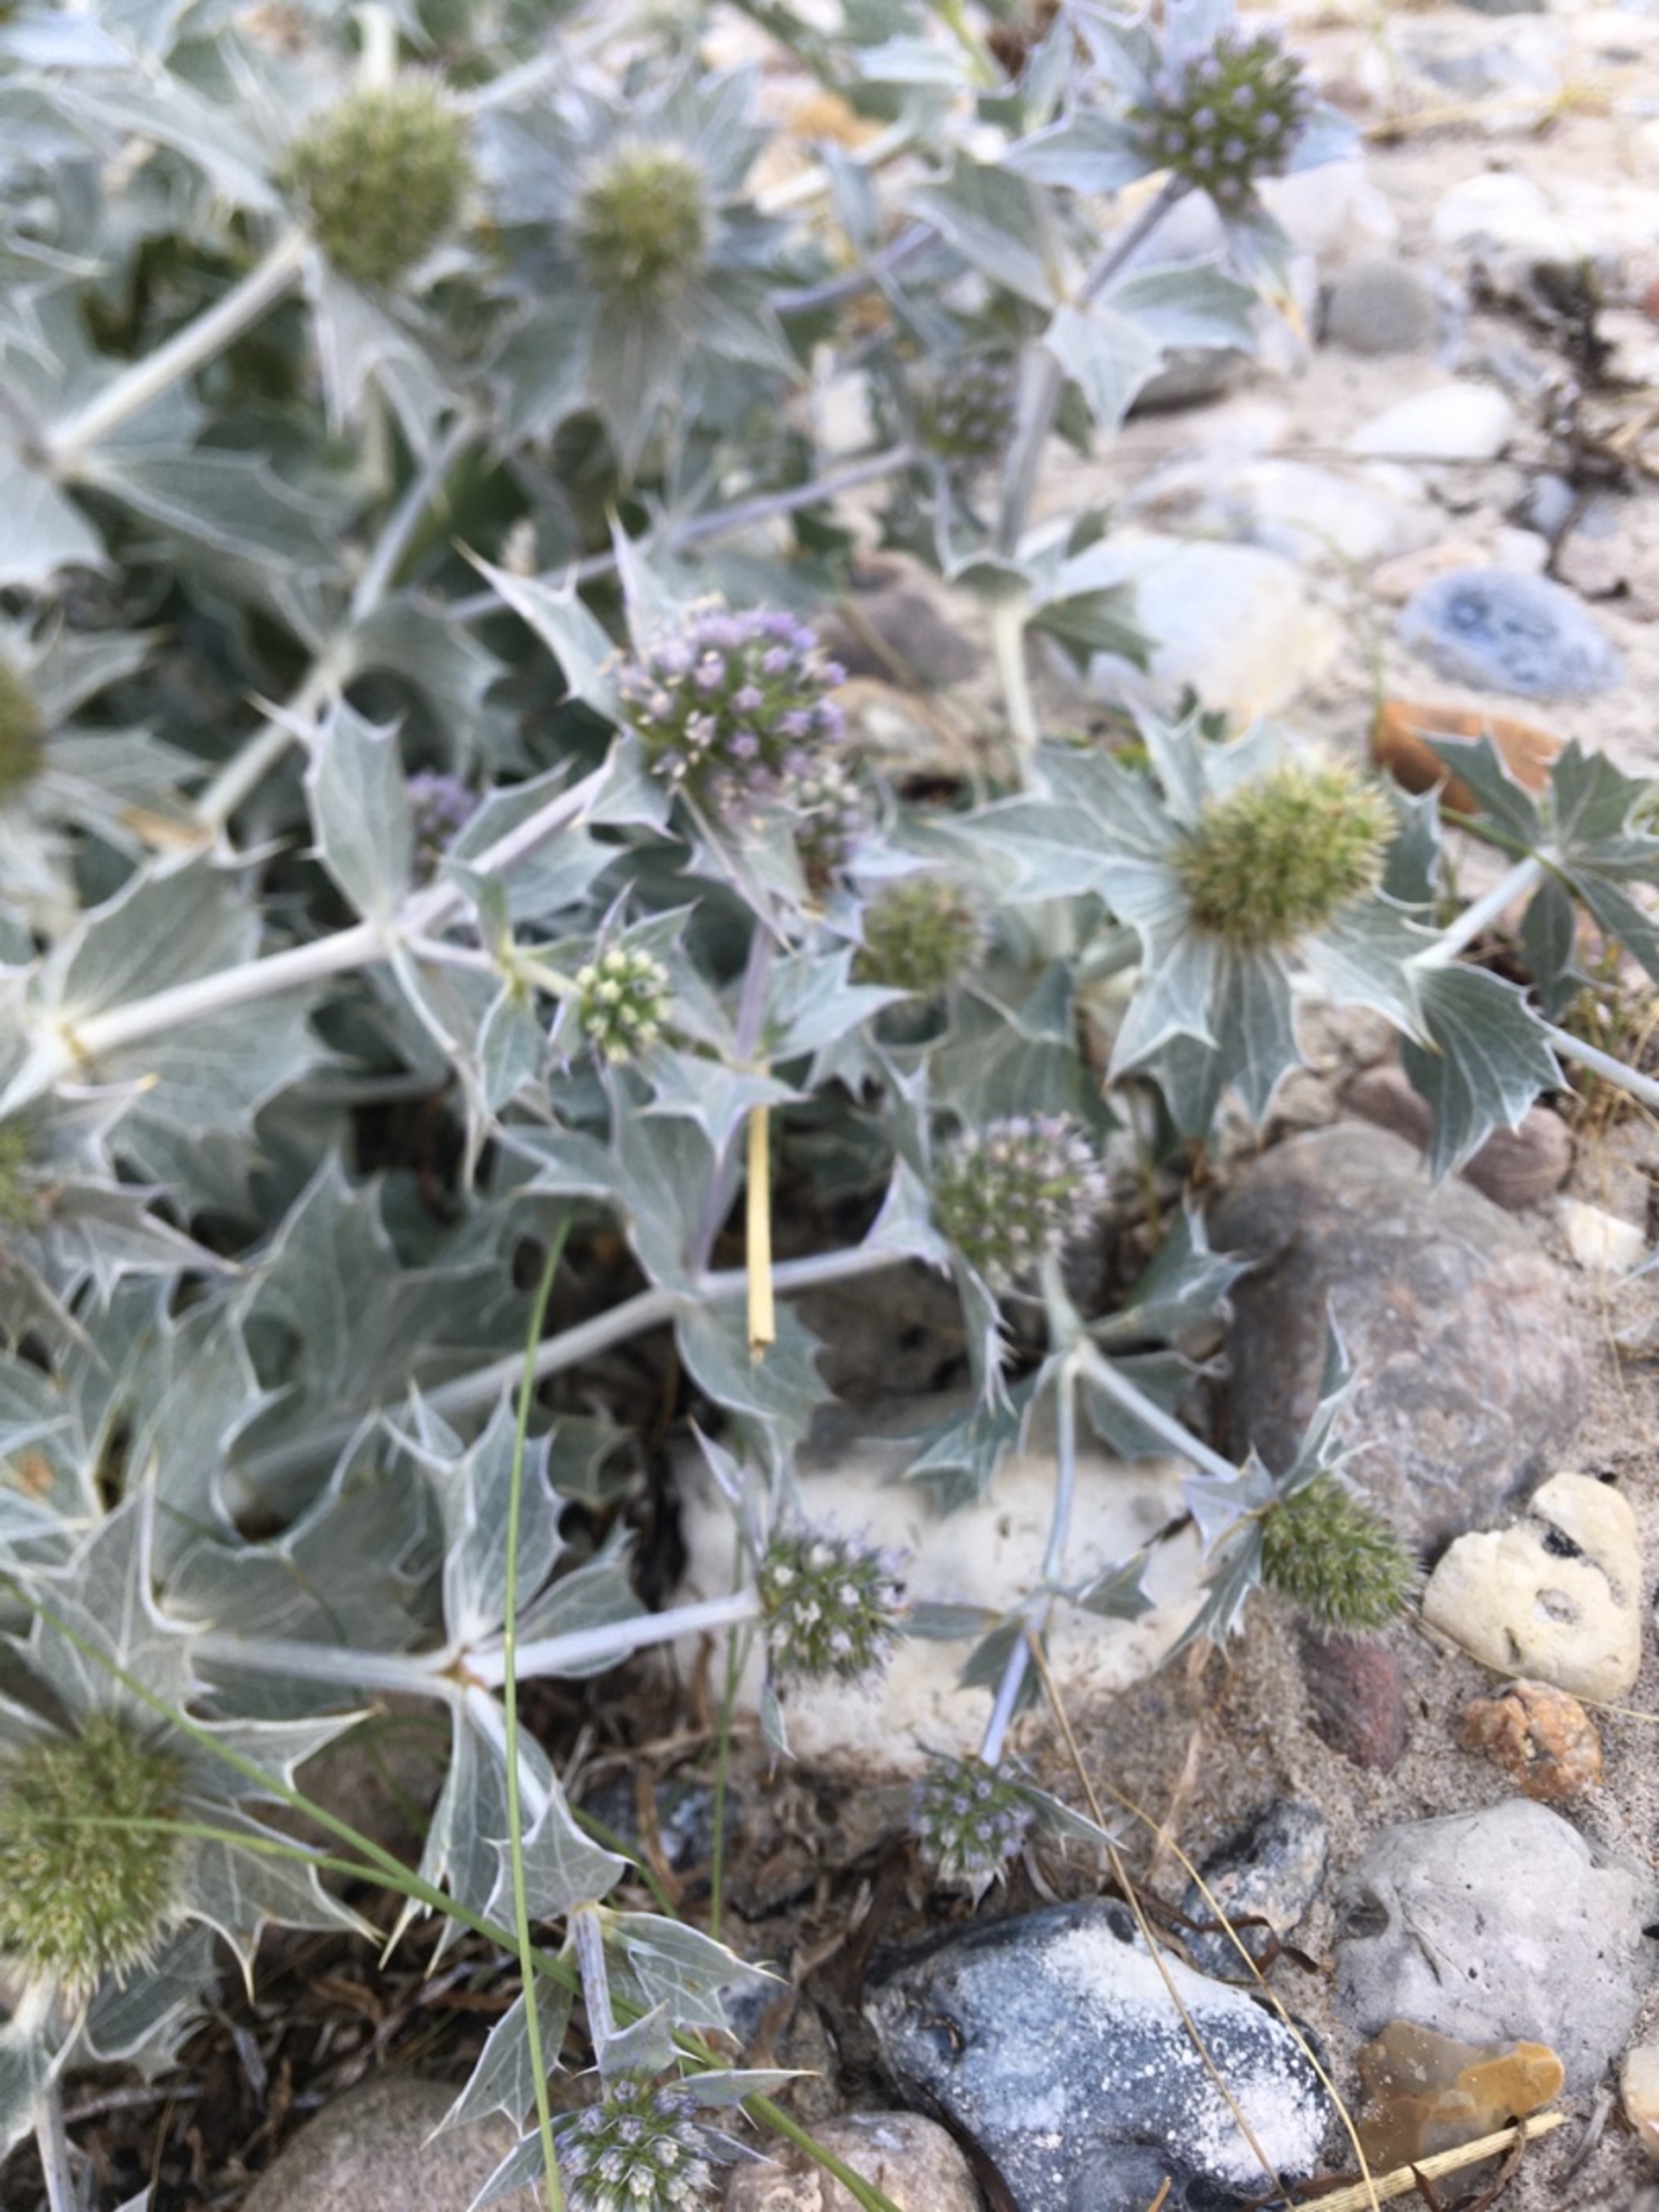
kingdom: Plantae
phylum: Tracheophyta
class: Magnoliopsida
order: Apiales
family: Apiaceae
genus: Eryngium
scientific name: Eryngium maritimum
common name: Strand-mandstro
